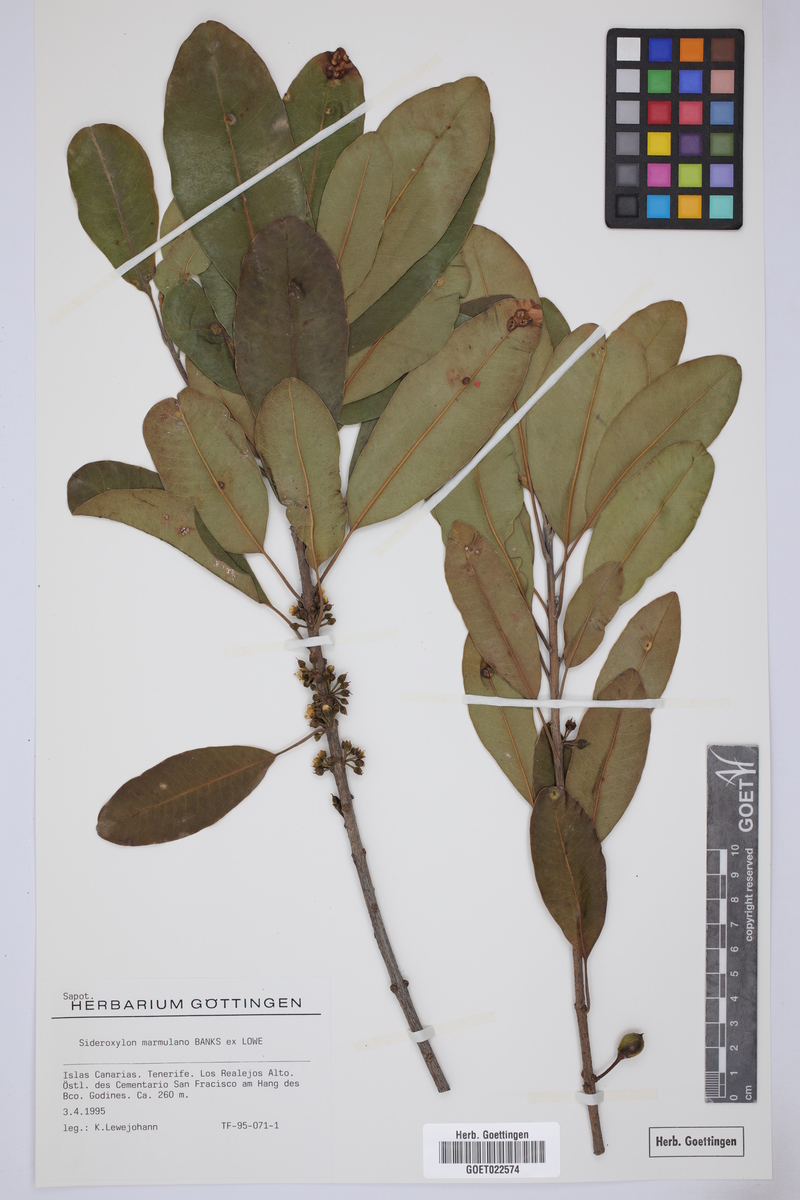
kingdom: Plantae
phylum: Tracheophyta
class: Magnoliopsida
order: Ericales
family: Sapotaceae
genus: Sideroxylon
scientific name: Sideroxylon mirmulano
